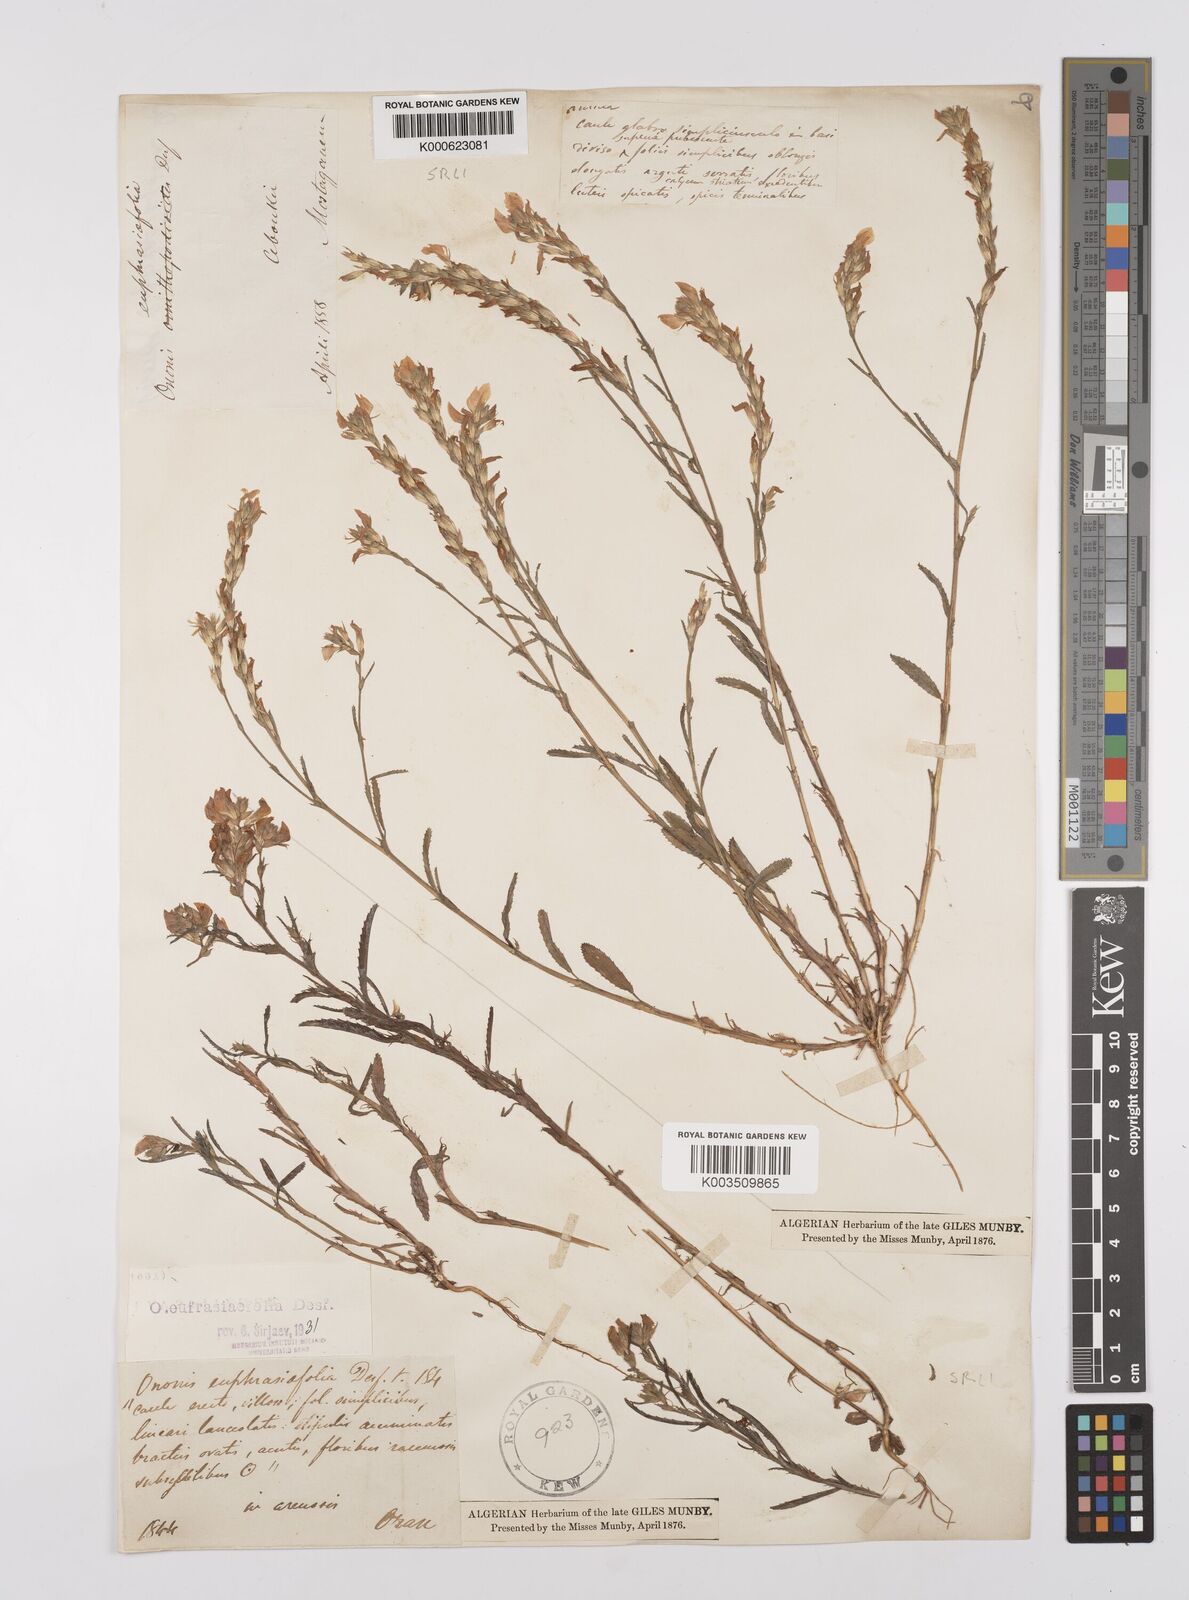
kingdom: Plantae
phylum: Tracheophyta
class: Magnoliopsida
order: Fabales
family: Fabaceae
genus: Ononis
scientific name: Ononis
